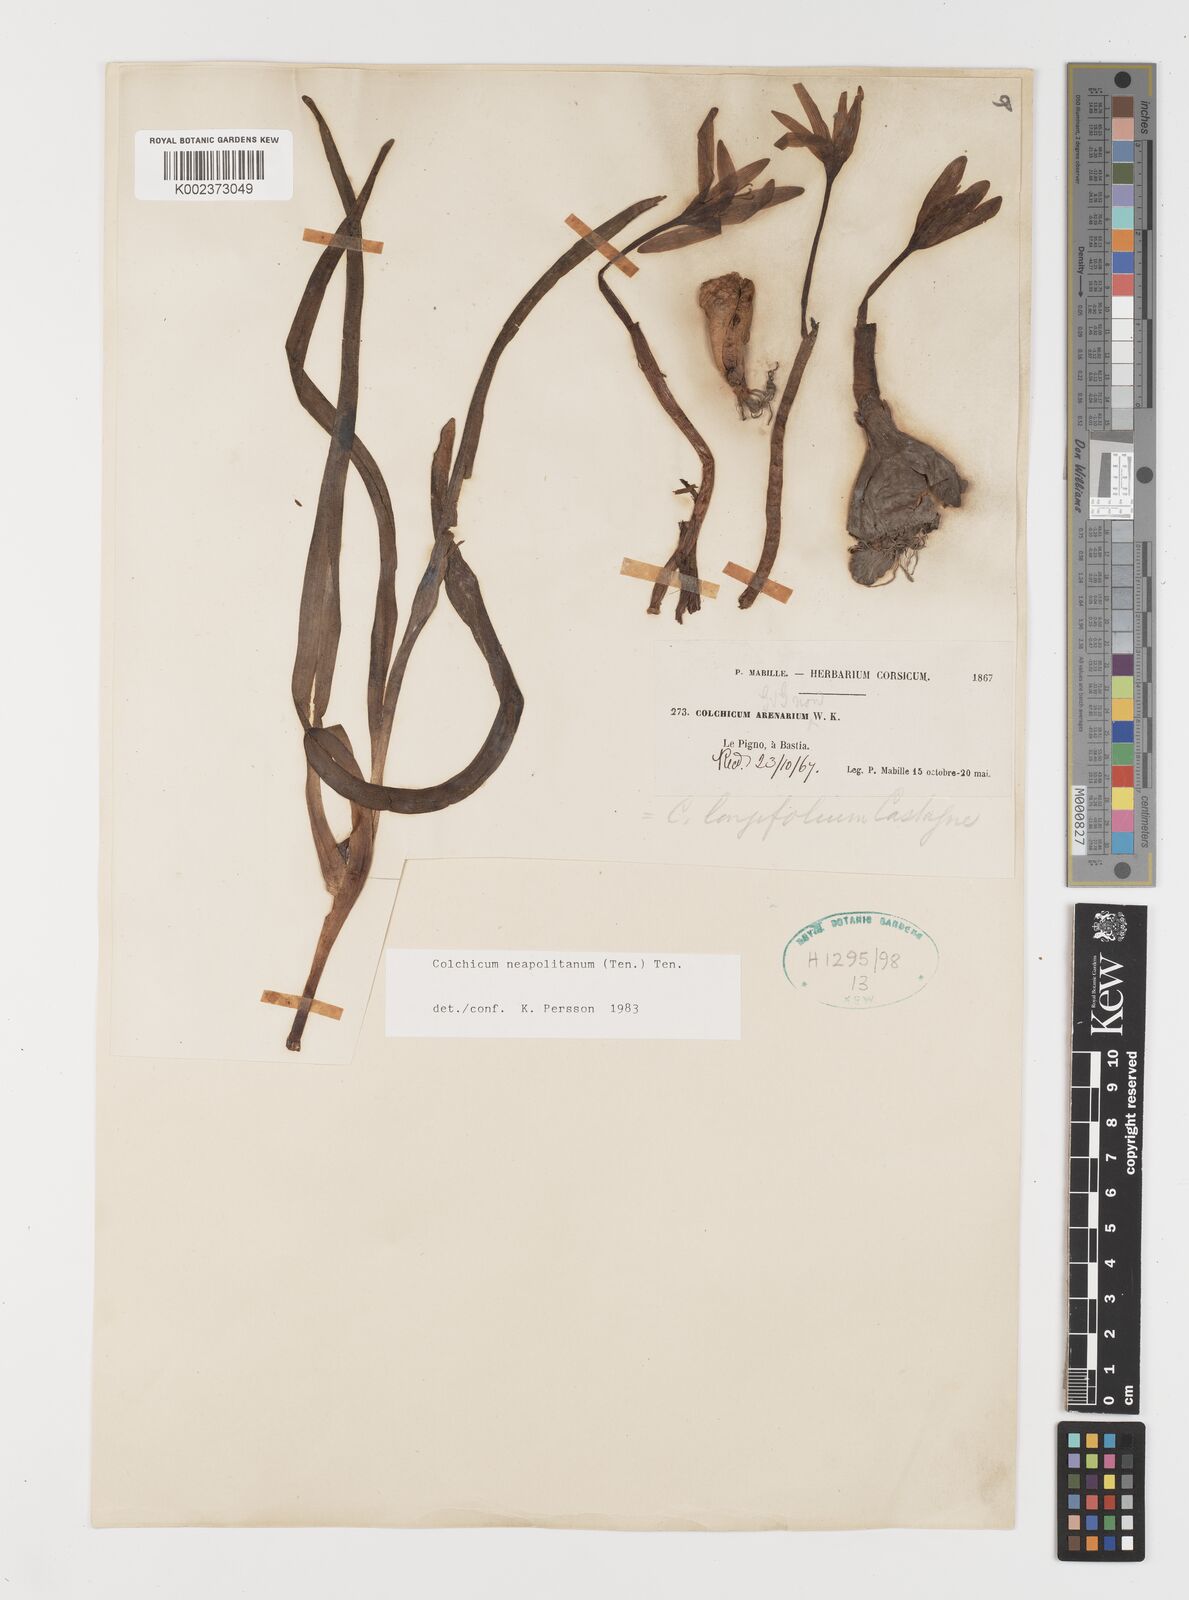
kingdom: Plantae
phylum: Tracheophyta
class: Liliopsida
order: Liliales
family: Colchicaceae
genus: Colchicum
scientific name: Colchicum neapolitanum
